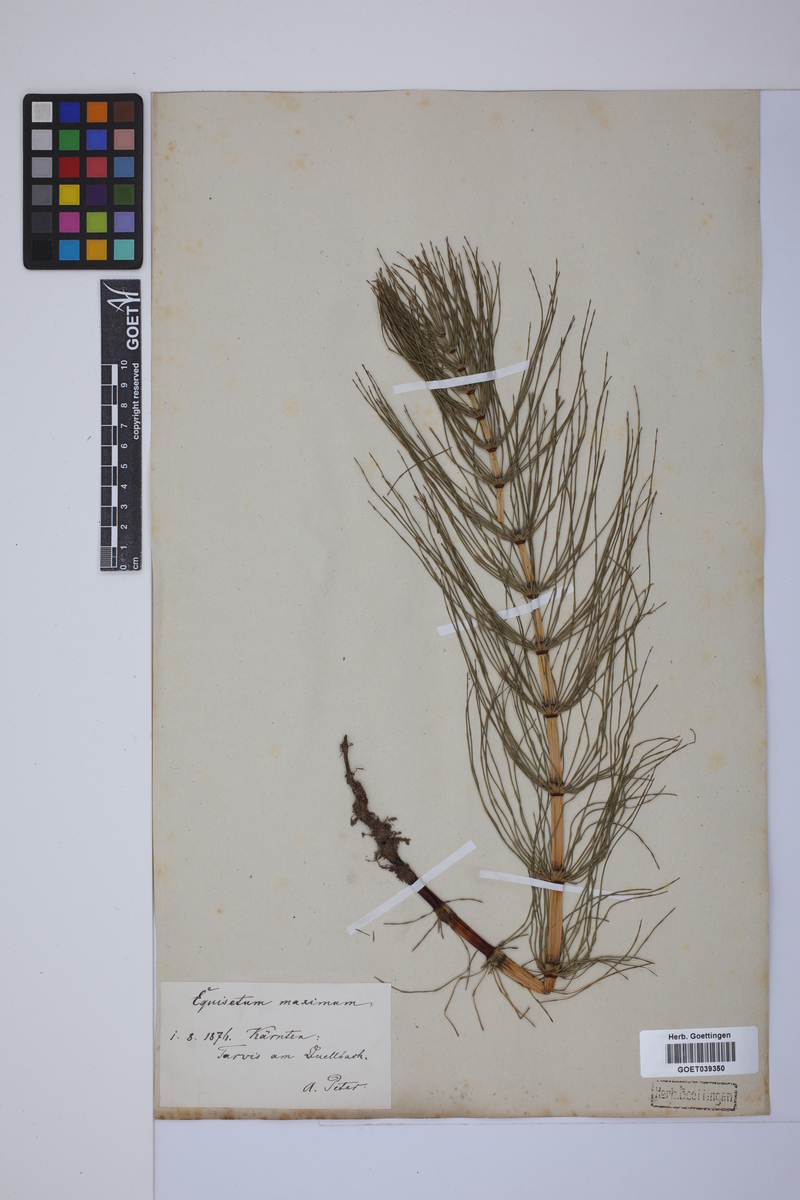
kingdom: Plantae
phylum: Tracheophyta
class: Polypodiopsida
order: Equisetales
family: Equisetaceae
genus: Equisetum
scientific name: Equisetum telmateia
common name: Great horsetail
